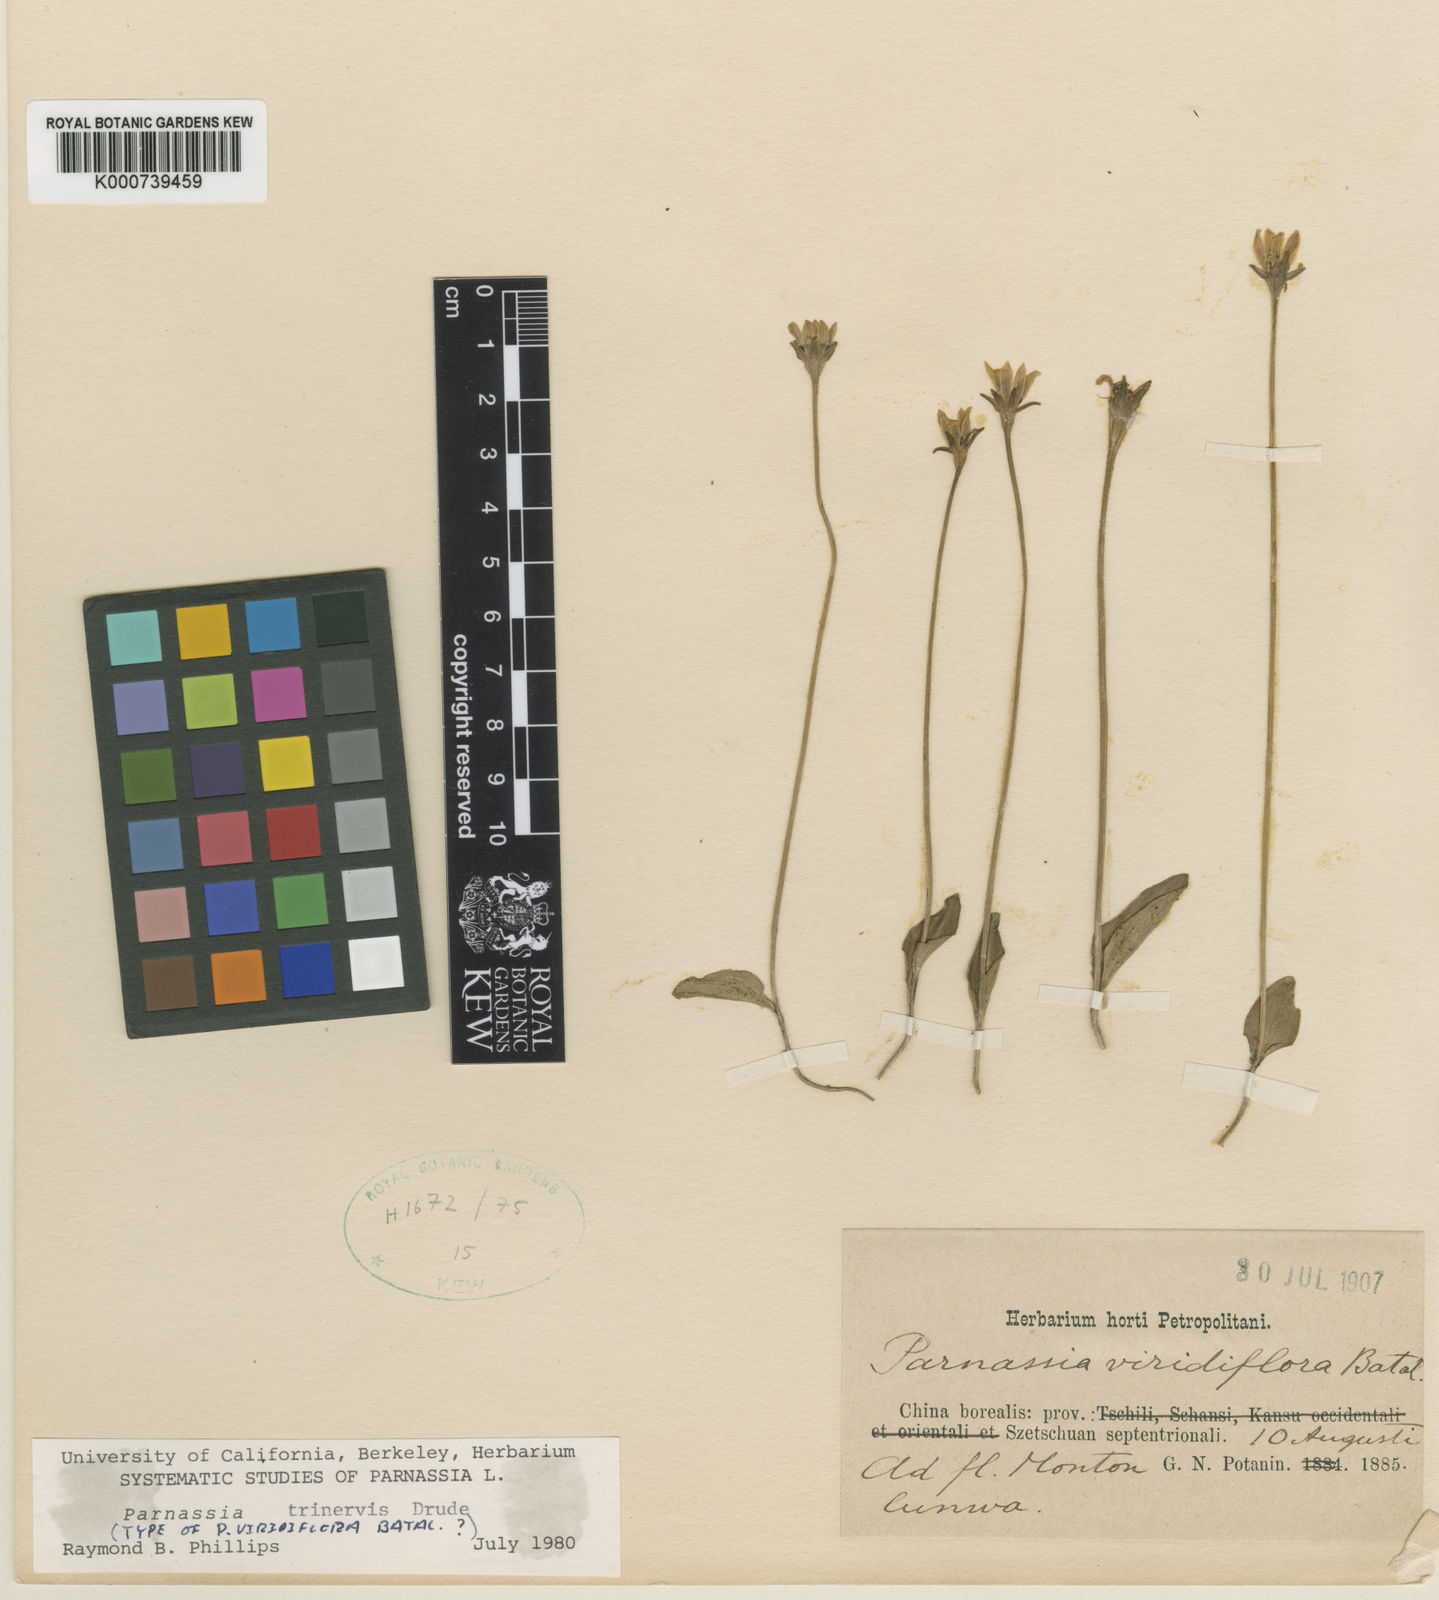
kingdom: Plantae
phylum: Tracheophyta
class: Magnoliopsida
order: Celastrales
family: Parnassiaceae
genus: Parnassia
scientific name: Parnassia viridiflora
